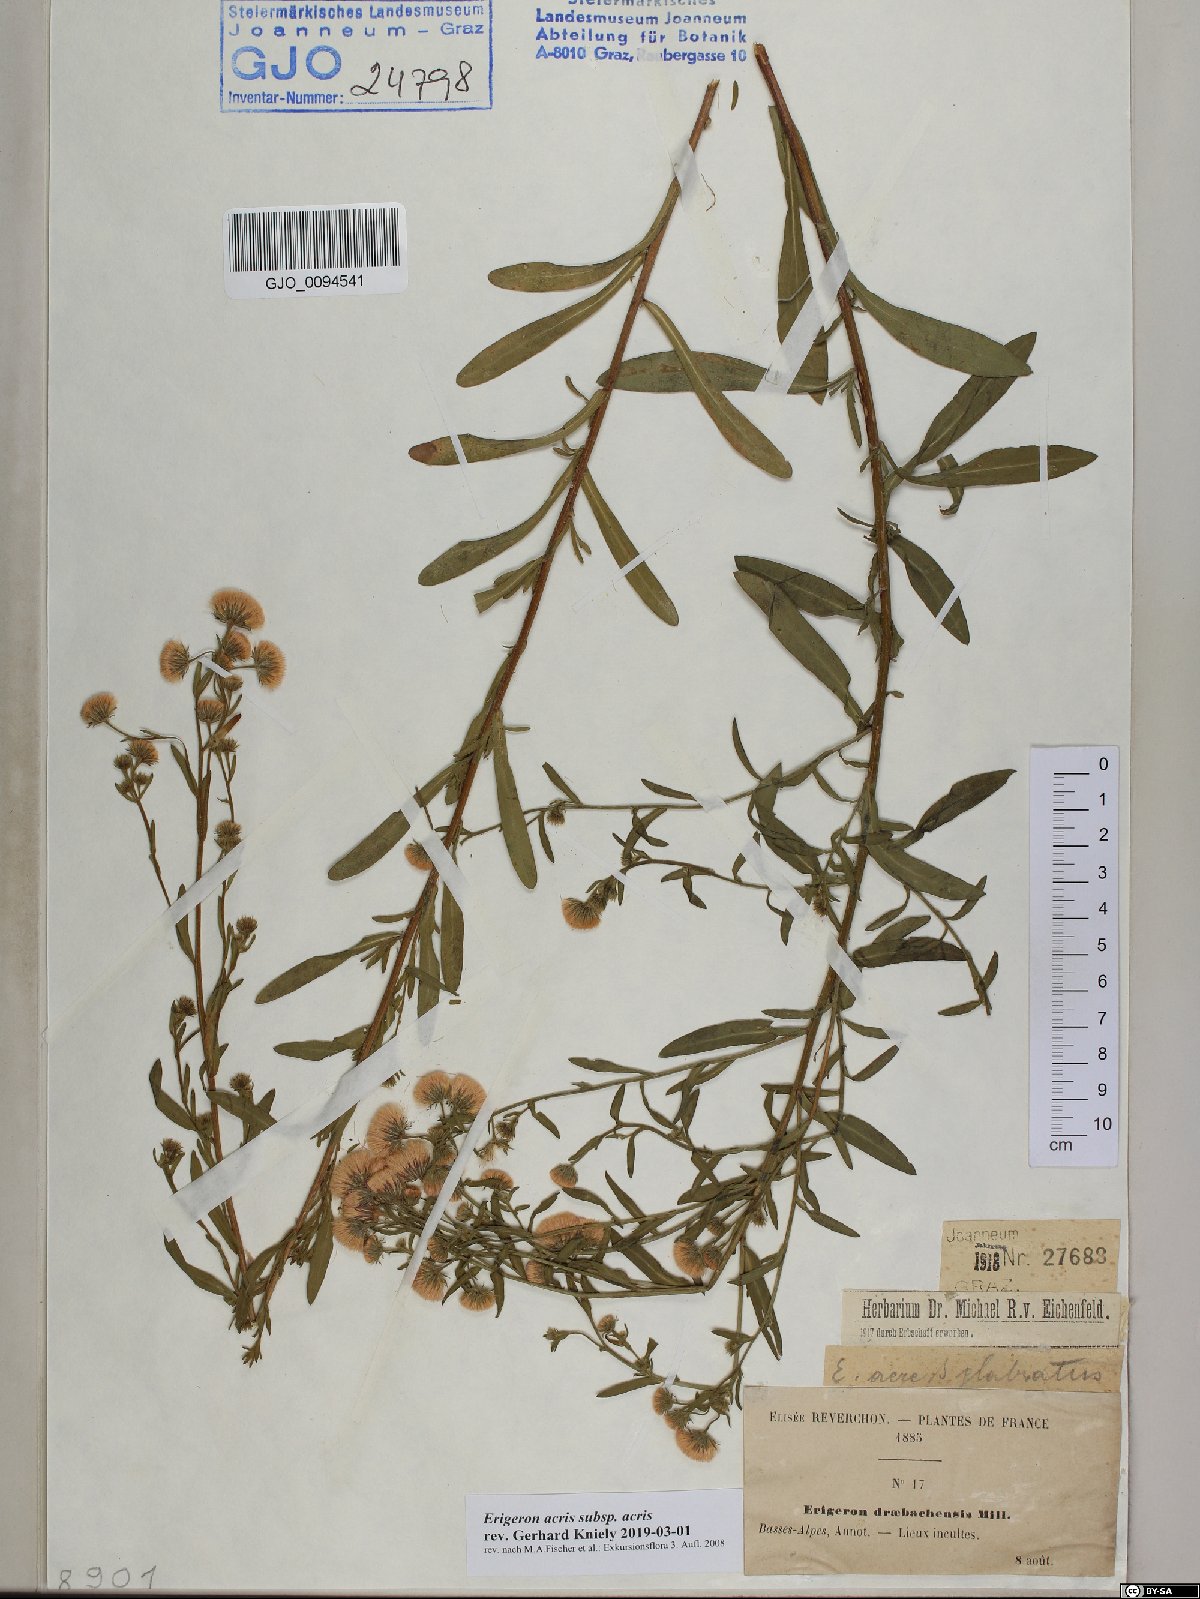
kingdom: Plantae
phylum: Tracheophyta
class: Magnoliopsida
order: Asterales
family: Asteraceae
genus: Erigeron
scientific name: Erigeron acris
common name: Blue fleabane
